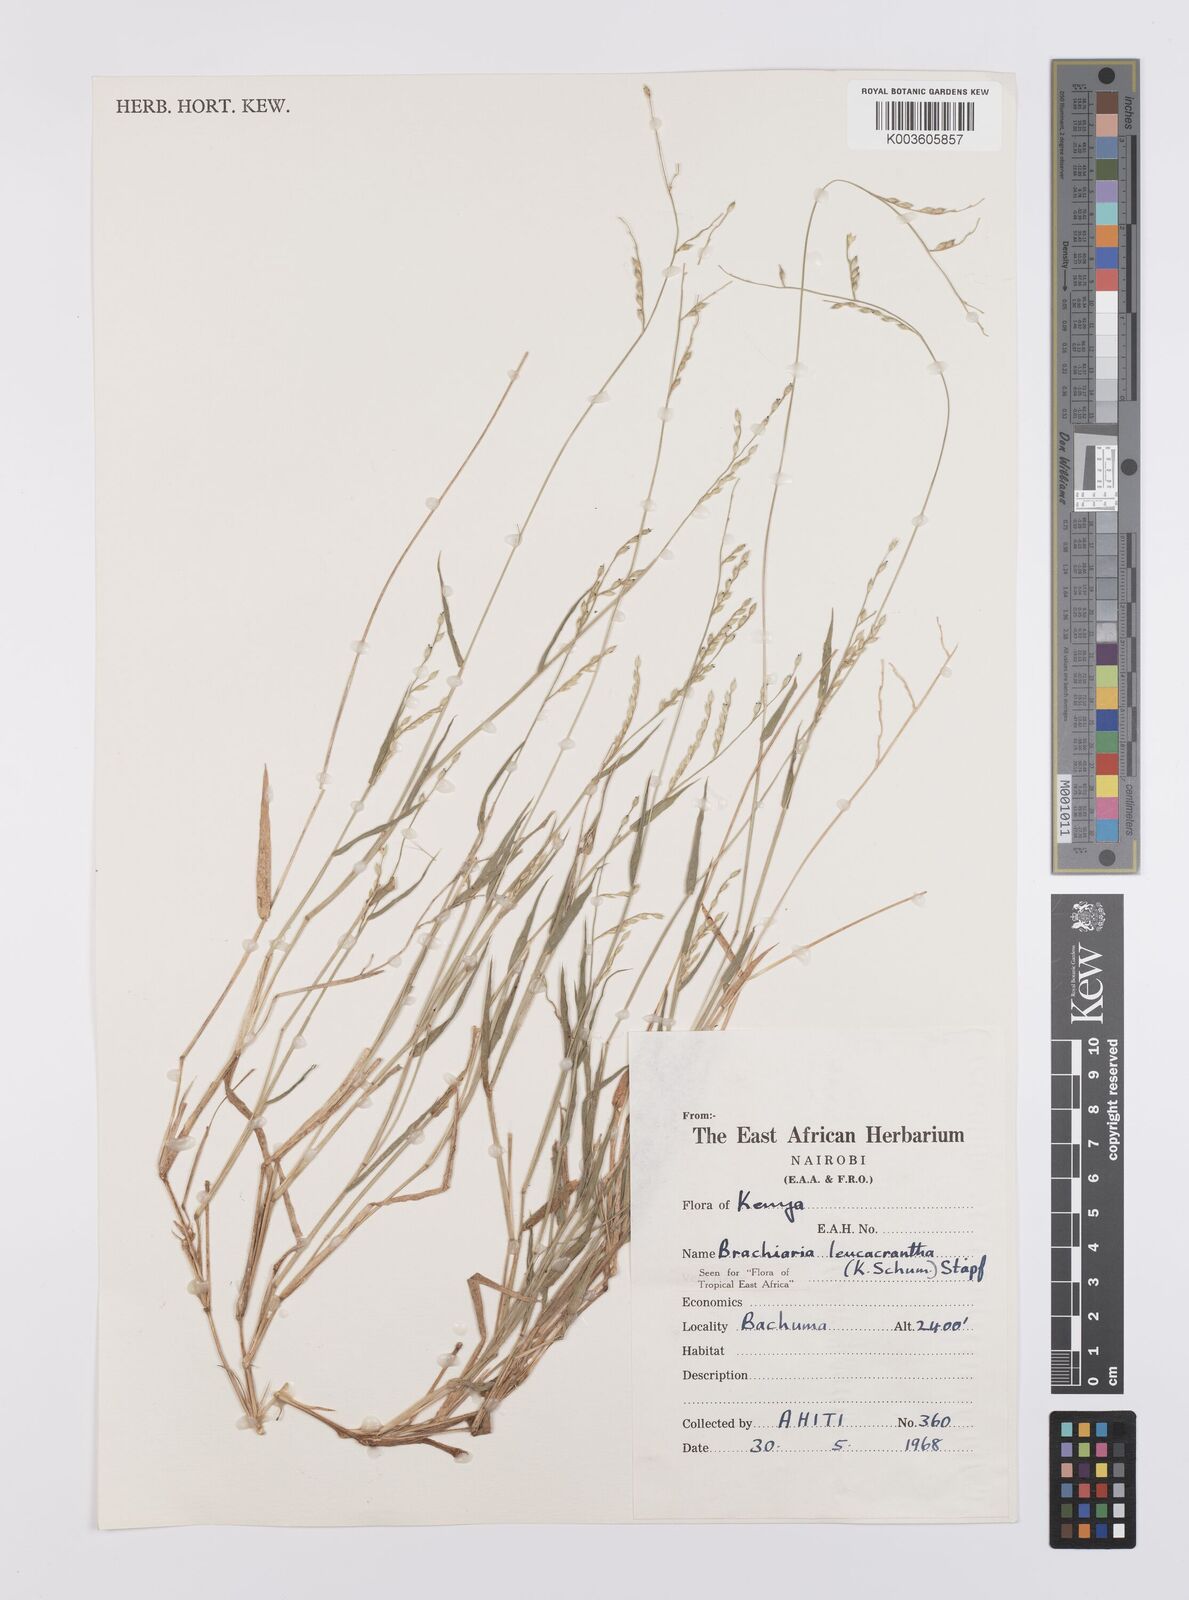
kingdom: Plantae
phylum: Tracheophyta
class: Liliopsida
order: Poales
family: Poaceae
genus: Urochloa
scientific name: Urochloa xantholeuca
